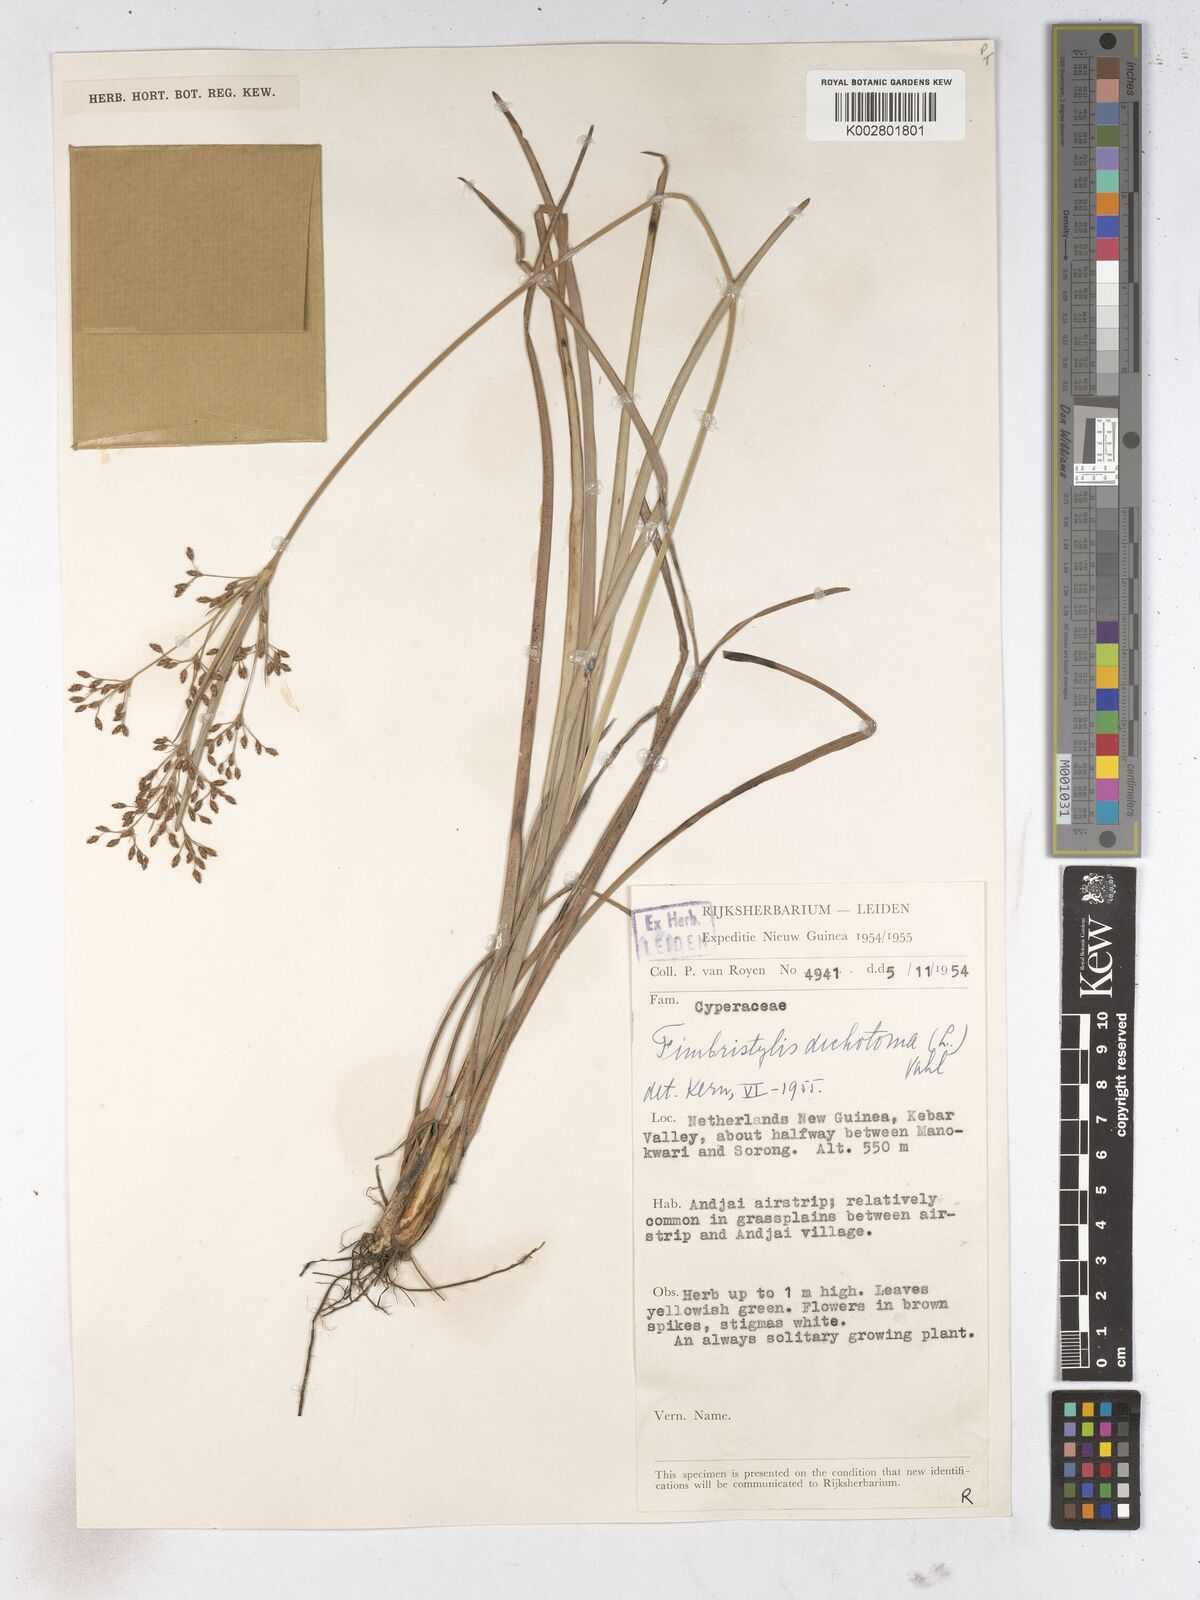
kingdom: Plantae
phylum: Tracheophyta
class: Liliopsida
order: Poales
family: Cyperaceae
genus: Fimbristylis
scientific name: Fimbristylis dichotoma
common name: Forked fimbry
